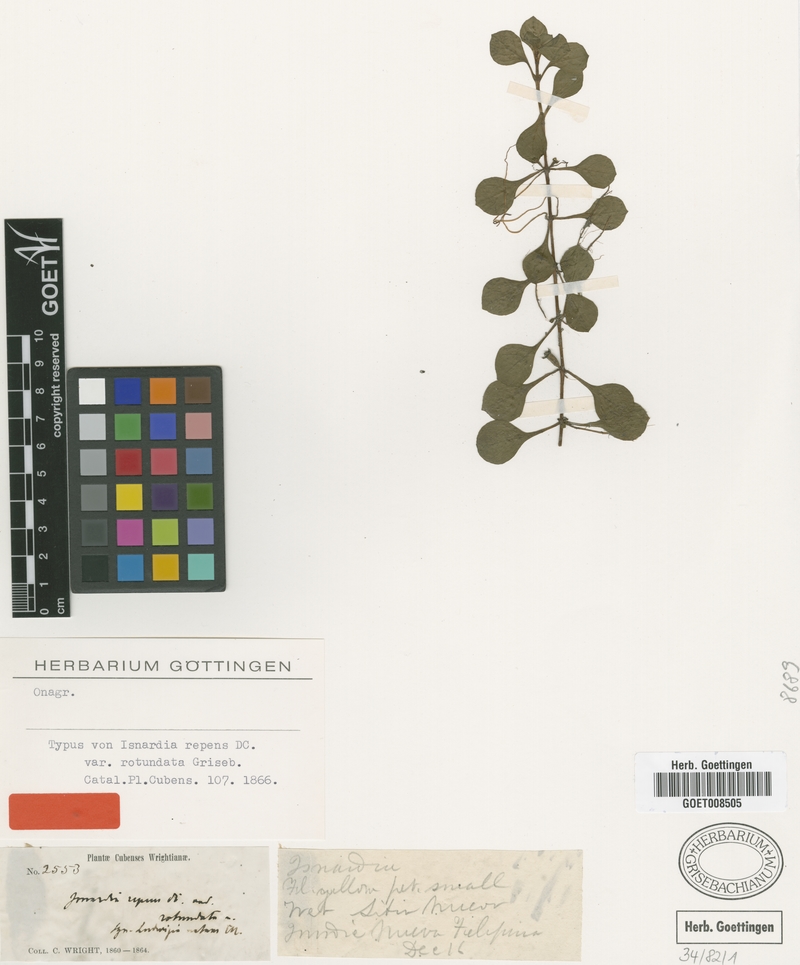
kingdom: Plantae
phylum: Tracheophyta
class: Magnoliopsida
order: Myrtales
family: Onagraceae
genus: Ludwigia
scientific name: Ludwigia repens
